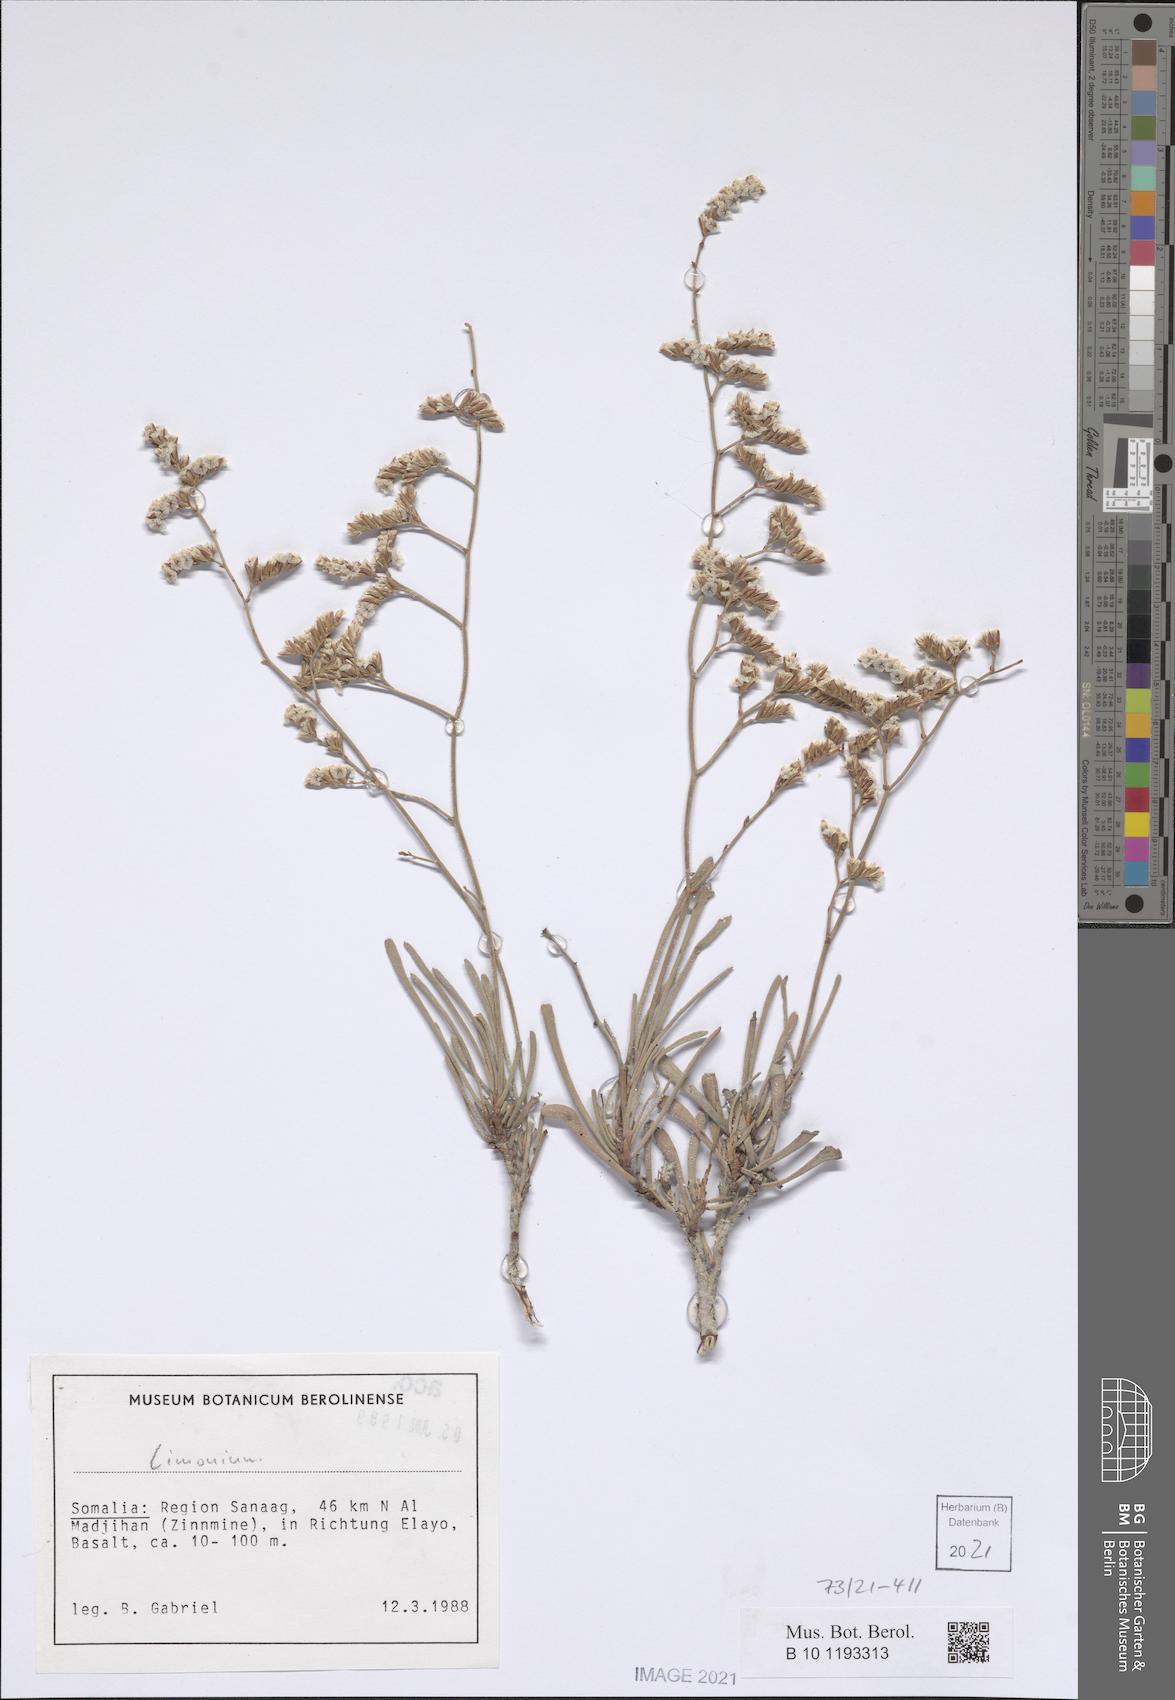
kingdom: Plantae
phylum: Tracheophyta
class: Magnoliopsida
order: Caryophyllales
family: Plumbaginaceae
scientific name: Plumbaginaceae
